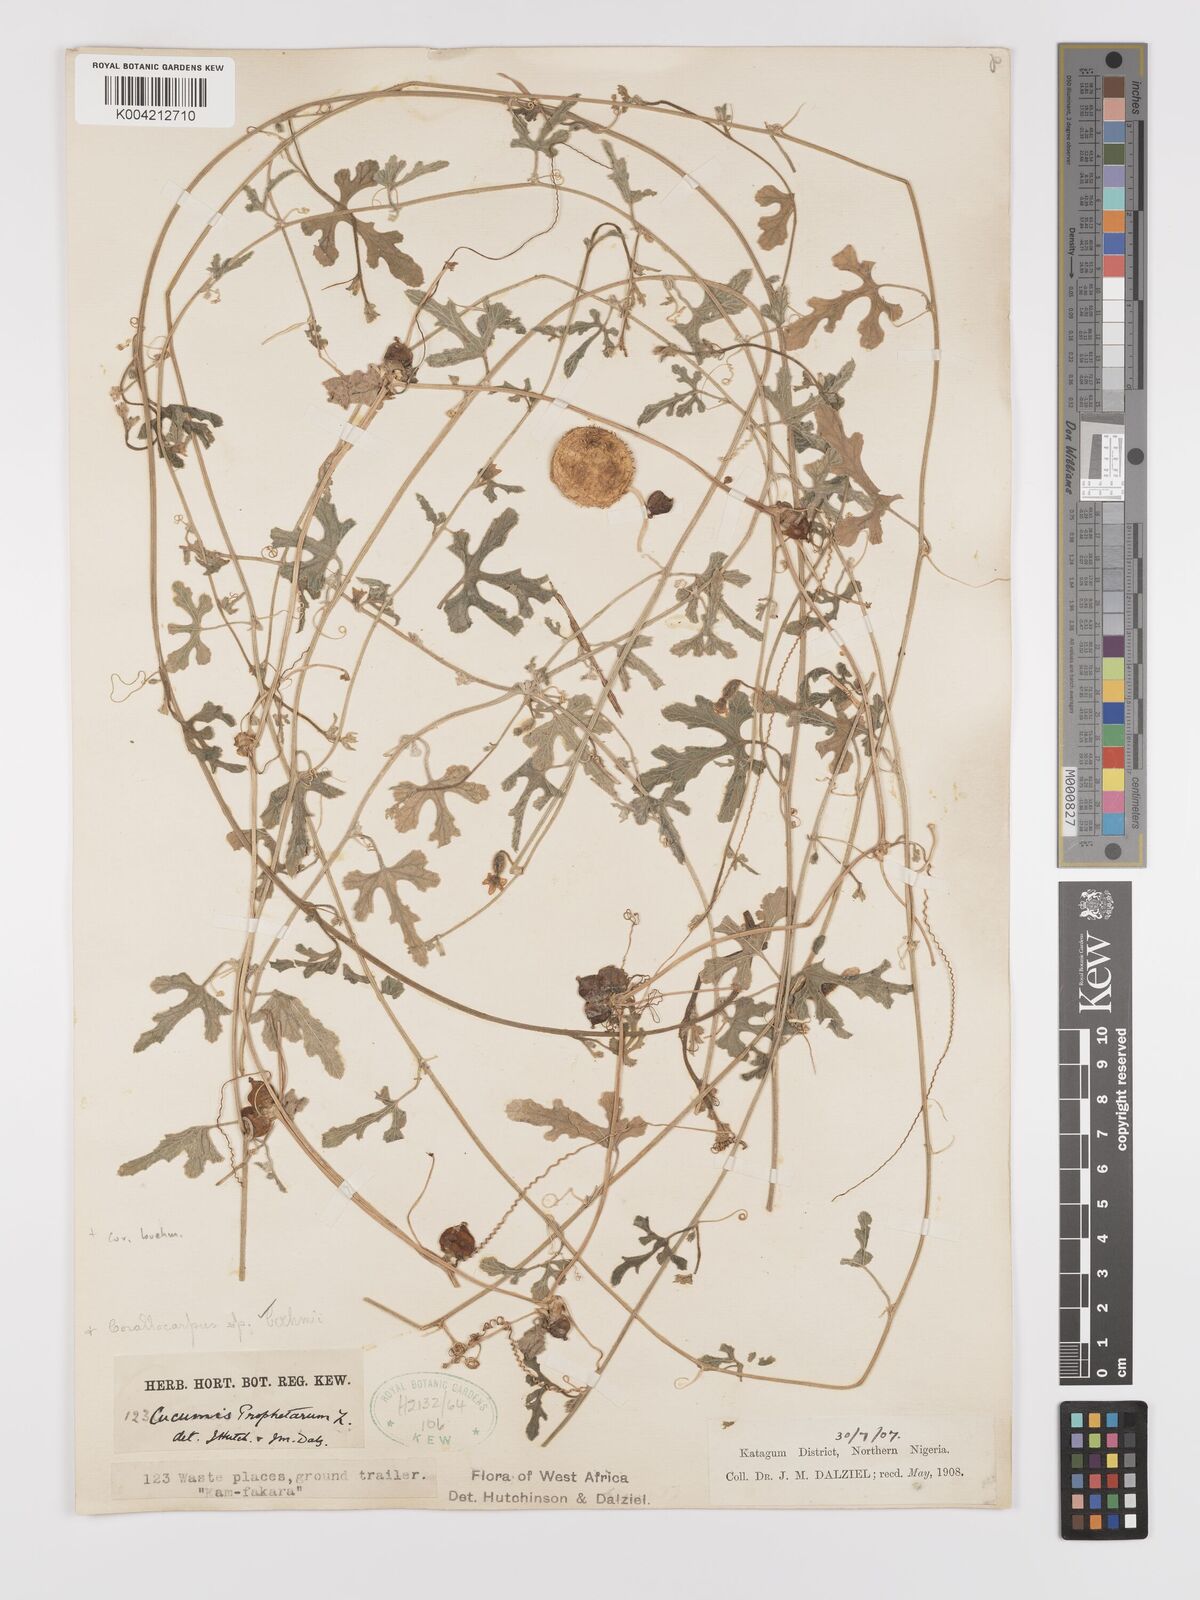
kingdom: Plantae
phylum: Tracheophyta
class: Magnoliopsida
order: Cucurbitales
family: Cucurbitaceae
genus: Corallocarpus
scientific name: Corallocarpus boehmii
